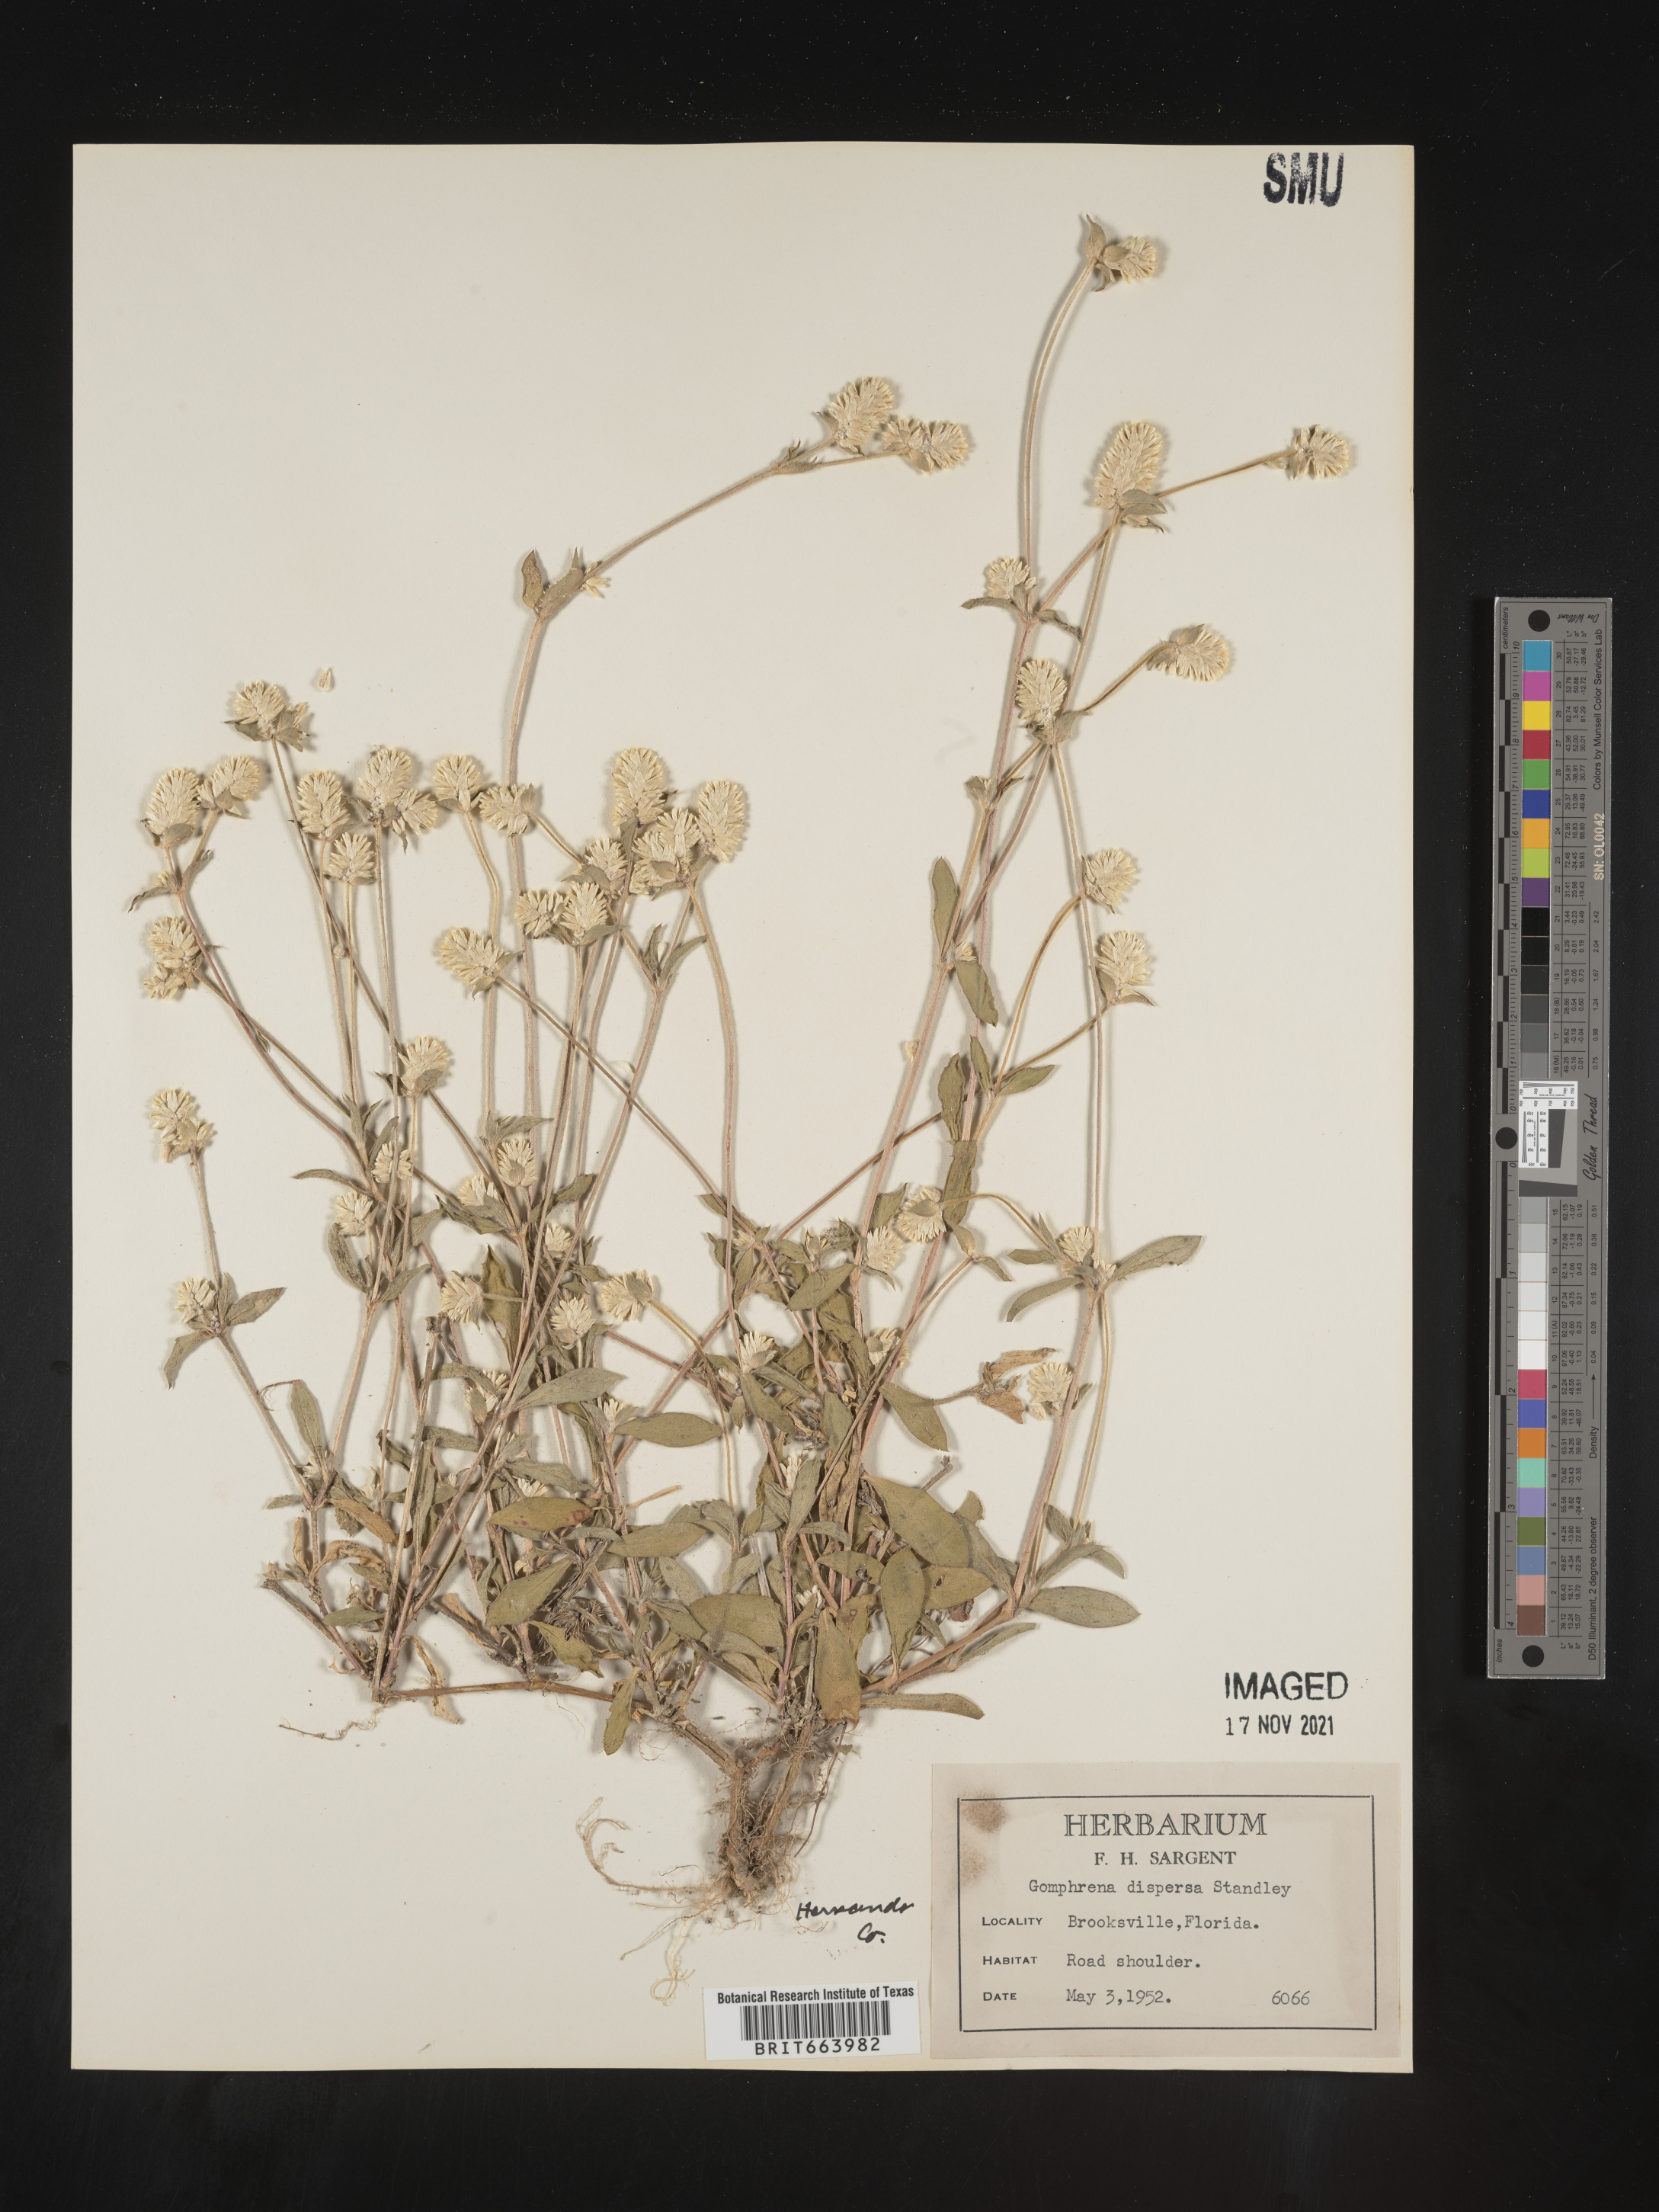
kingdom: Plantae
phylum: Tracheophyta
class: Magnoliopsida
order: Caryophyllales
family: Amaranthaceae
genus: Gomphrena
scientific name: Gomphrena
